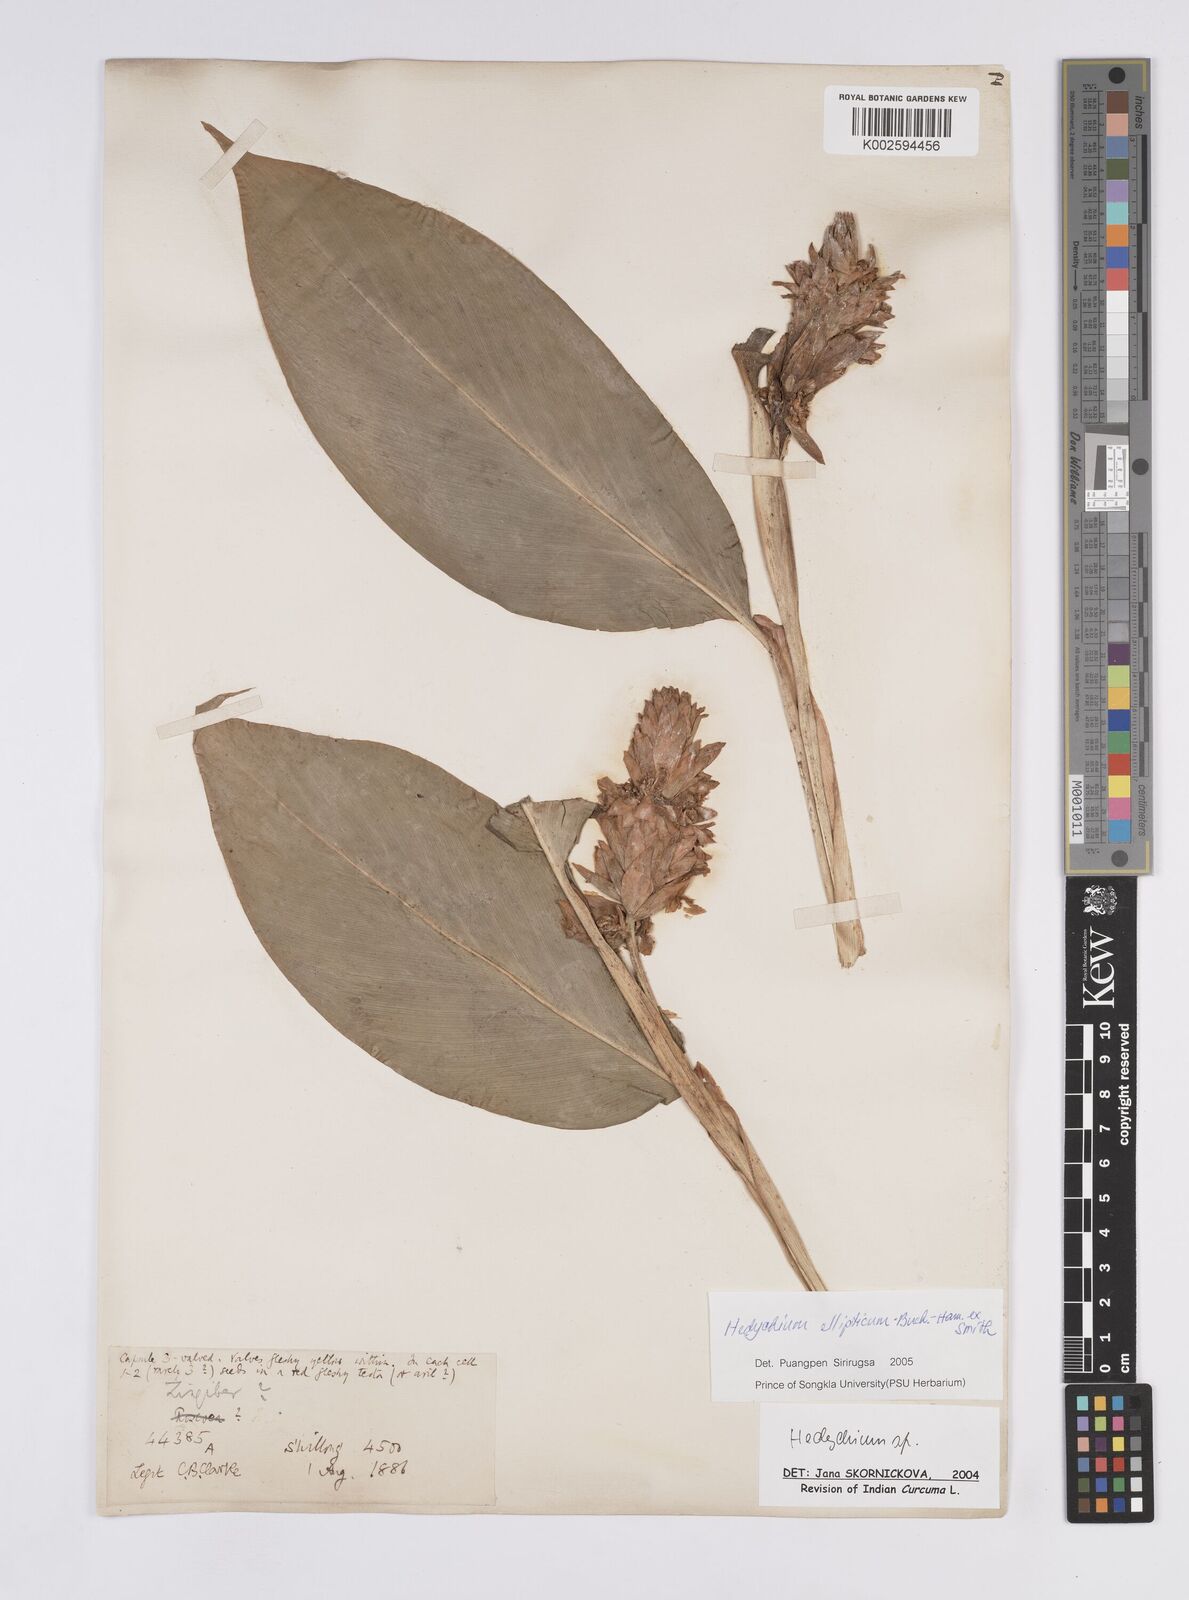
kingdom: Plantae
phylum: Tracheophyta
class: Liliopsida
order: Zingiberales
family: Zingiberaceae
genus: Hedychium
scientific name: Hedychium ellipticum
